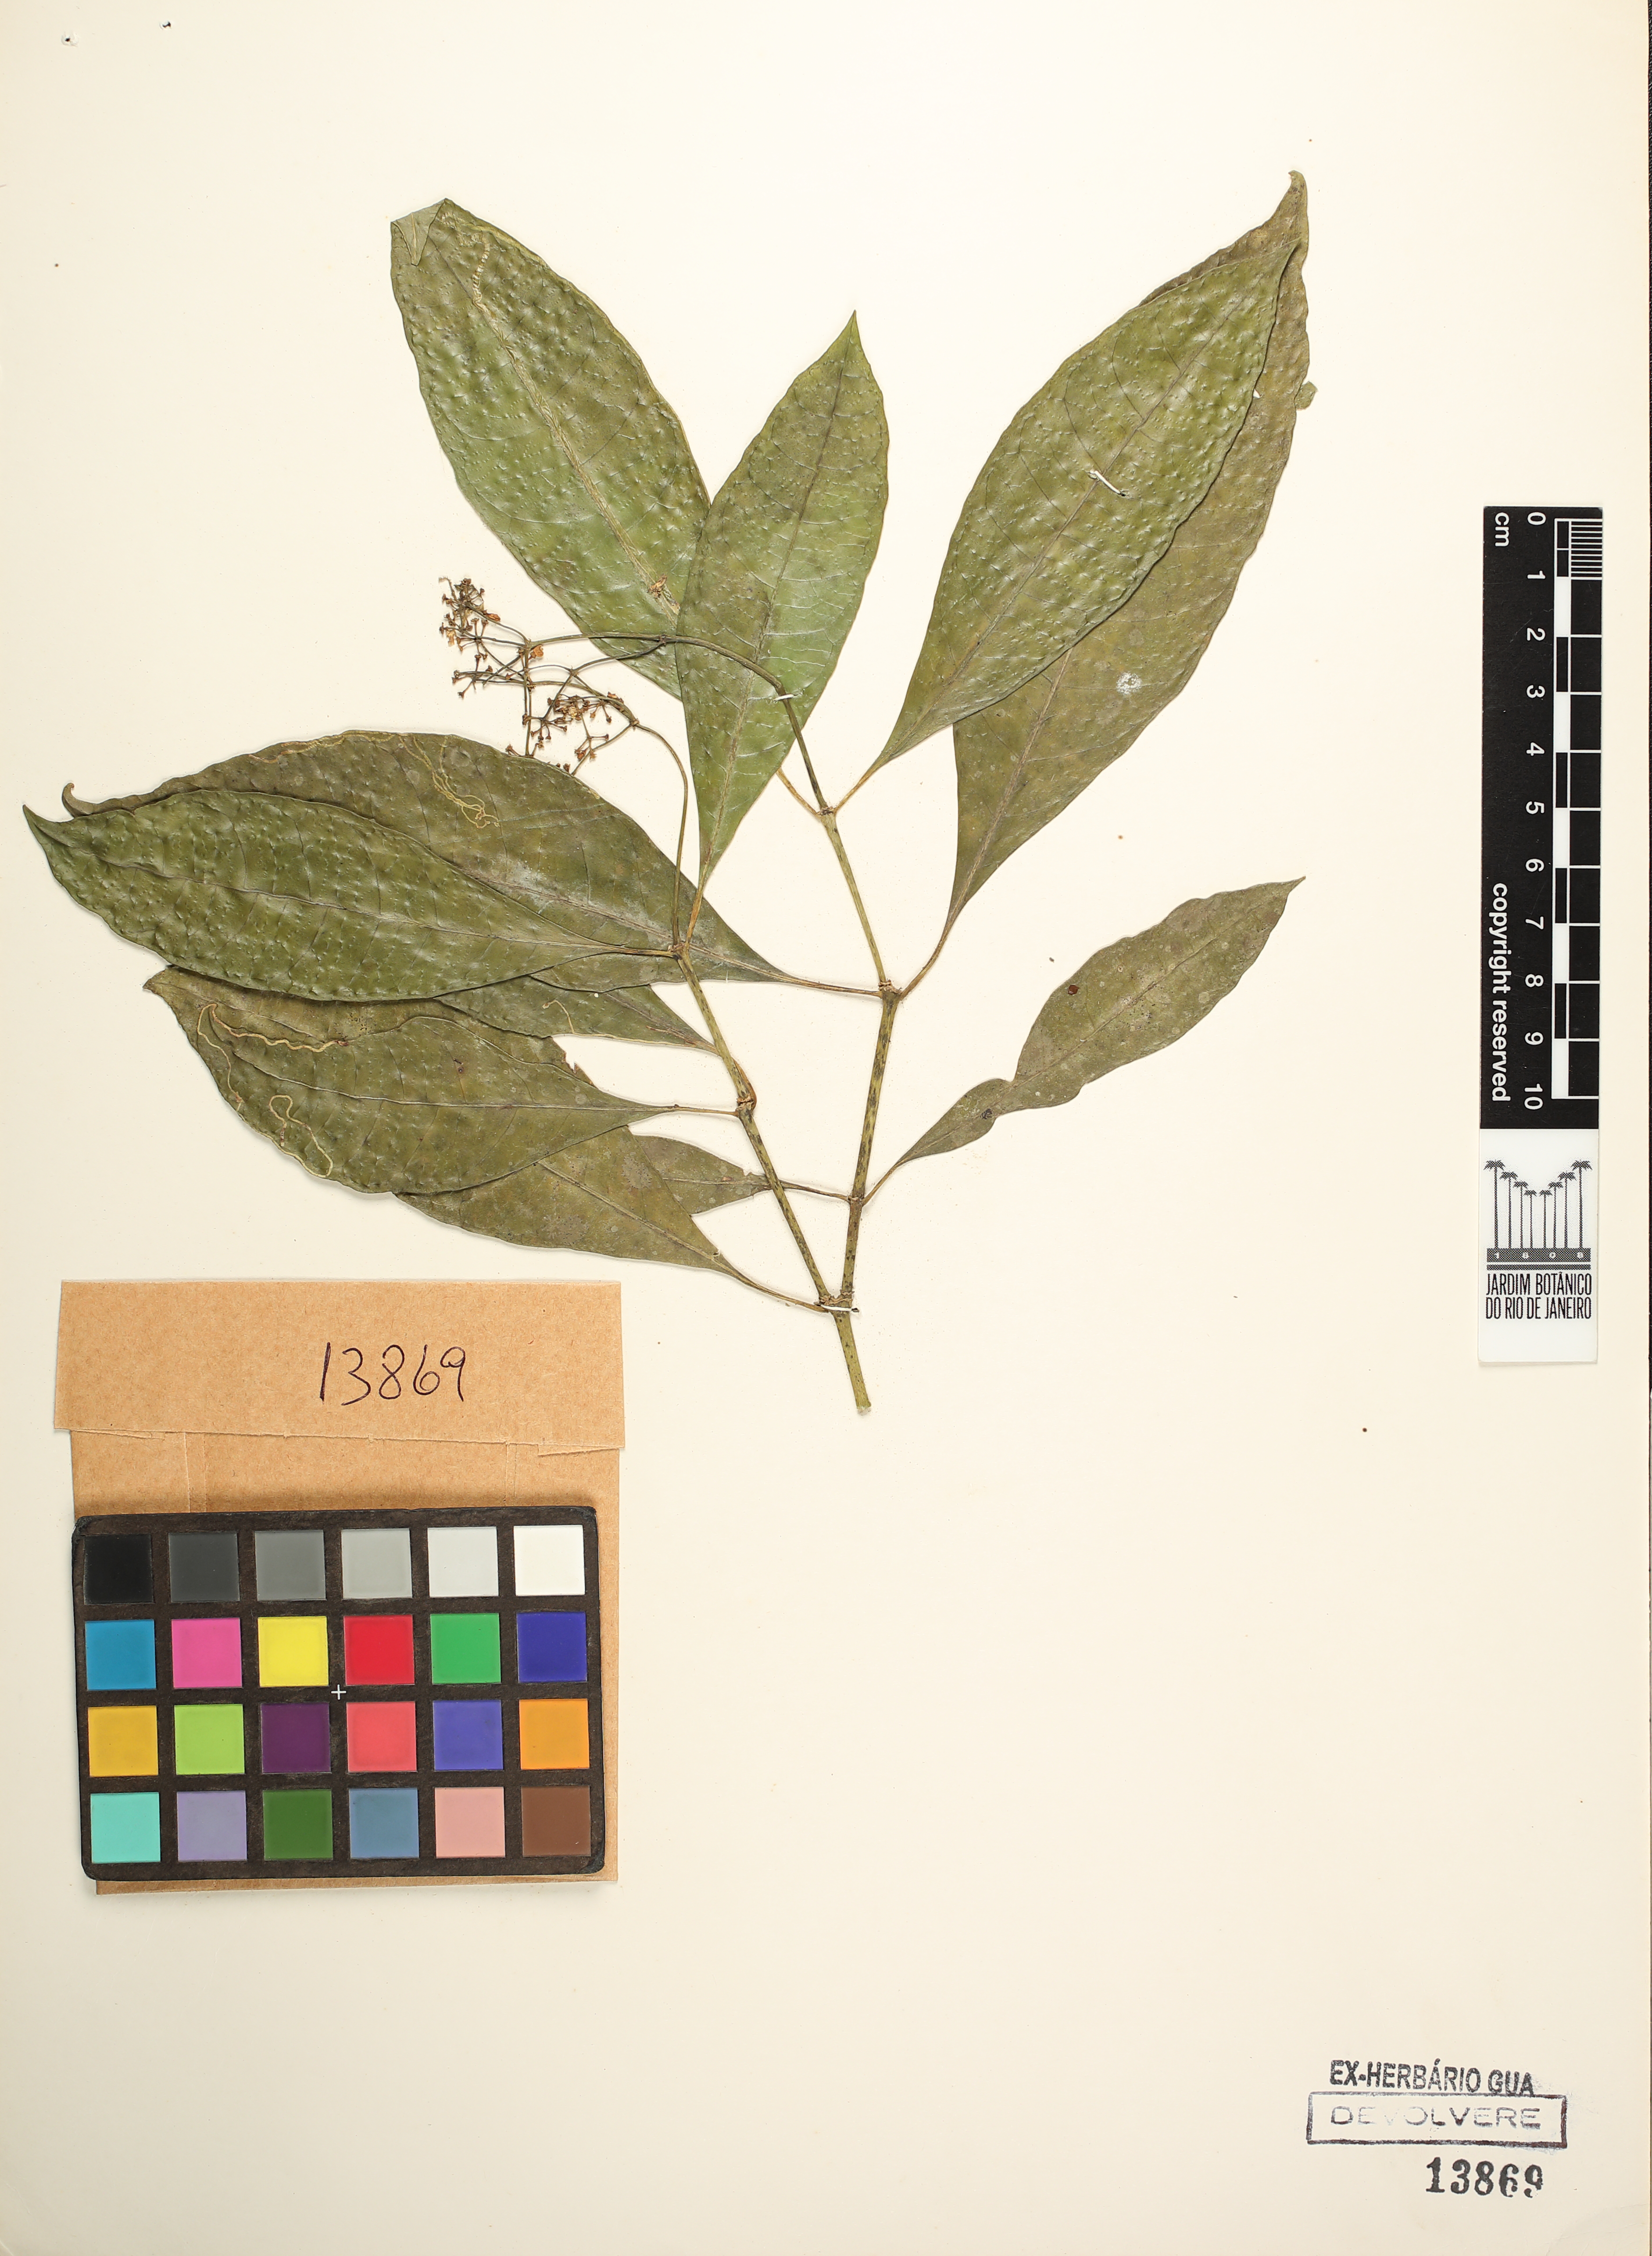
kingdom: Plantae
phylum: Tracheophyta
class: Magnoliopsida
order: Gentianales
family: Rubiaceae
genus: Eumachia
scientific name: Eumachia astrellantha
